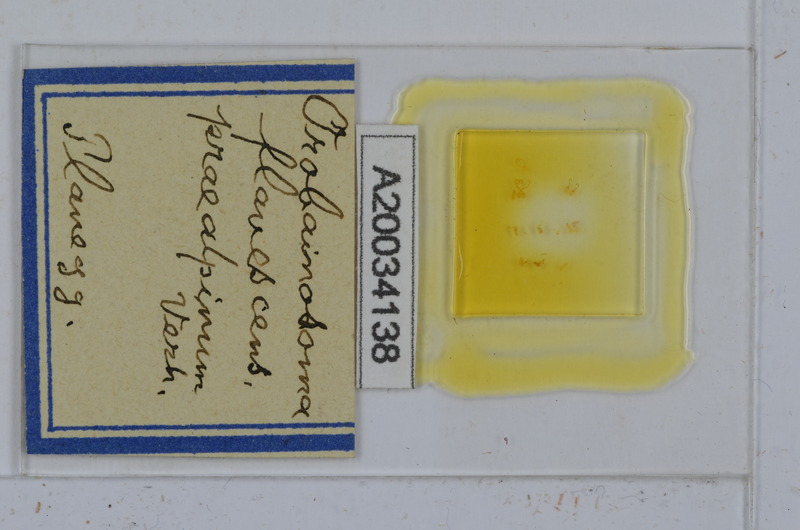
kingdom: Animalia
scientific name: Animalia
